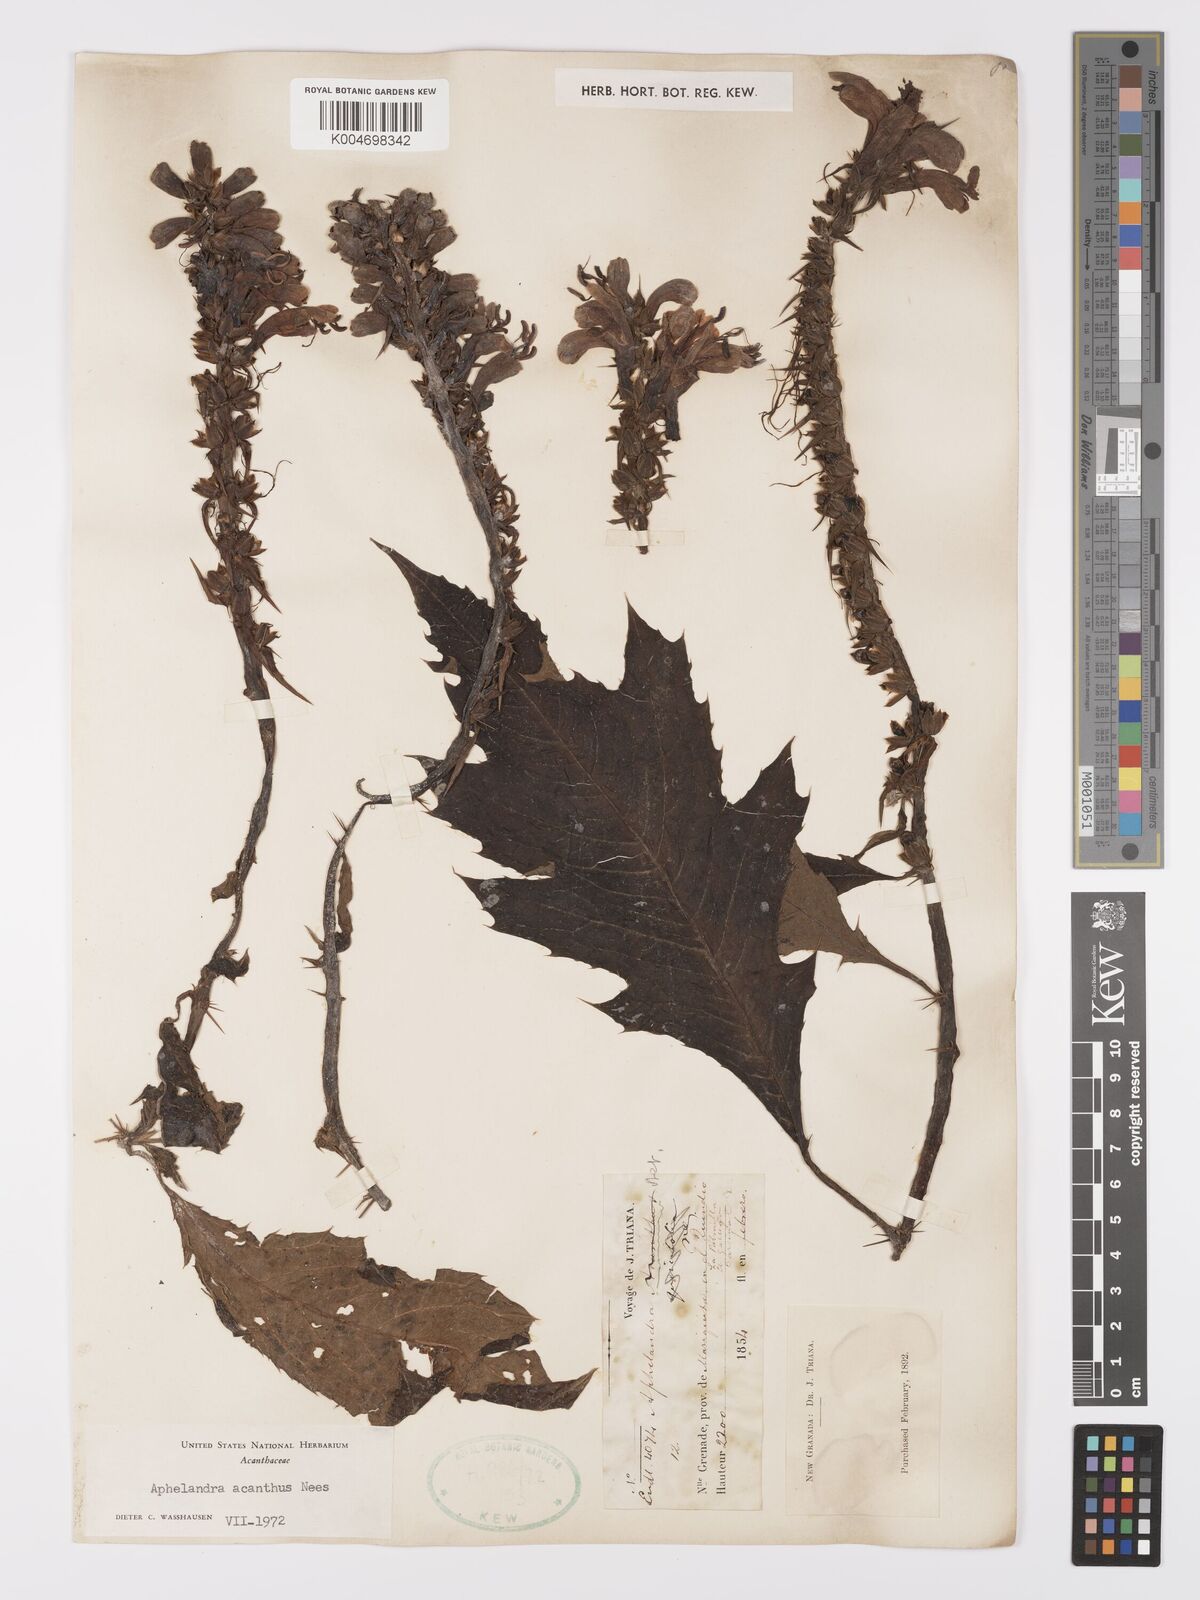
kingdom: Plantae
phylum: Tracheophyta
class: Magnoliopsida
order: Lamiales
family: Acanthaceae
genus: Aphelandra
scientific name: Aphelandra runcinata
